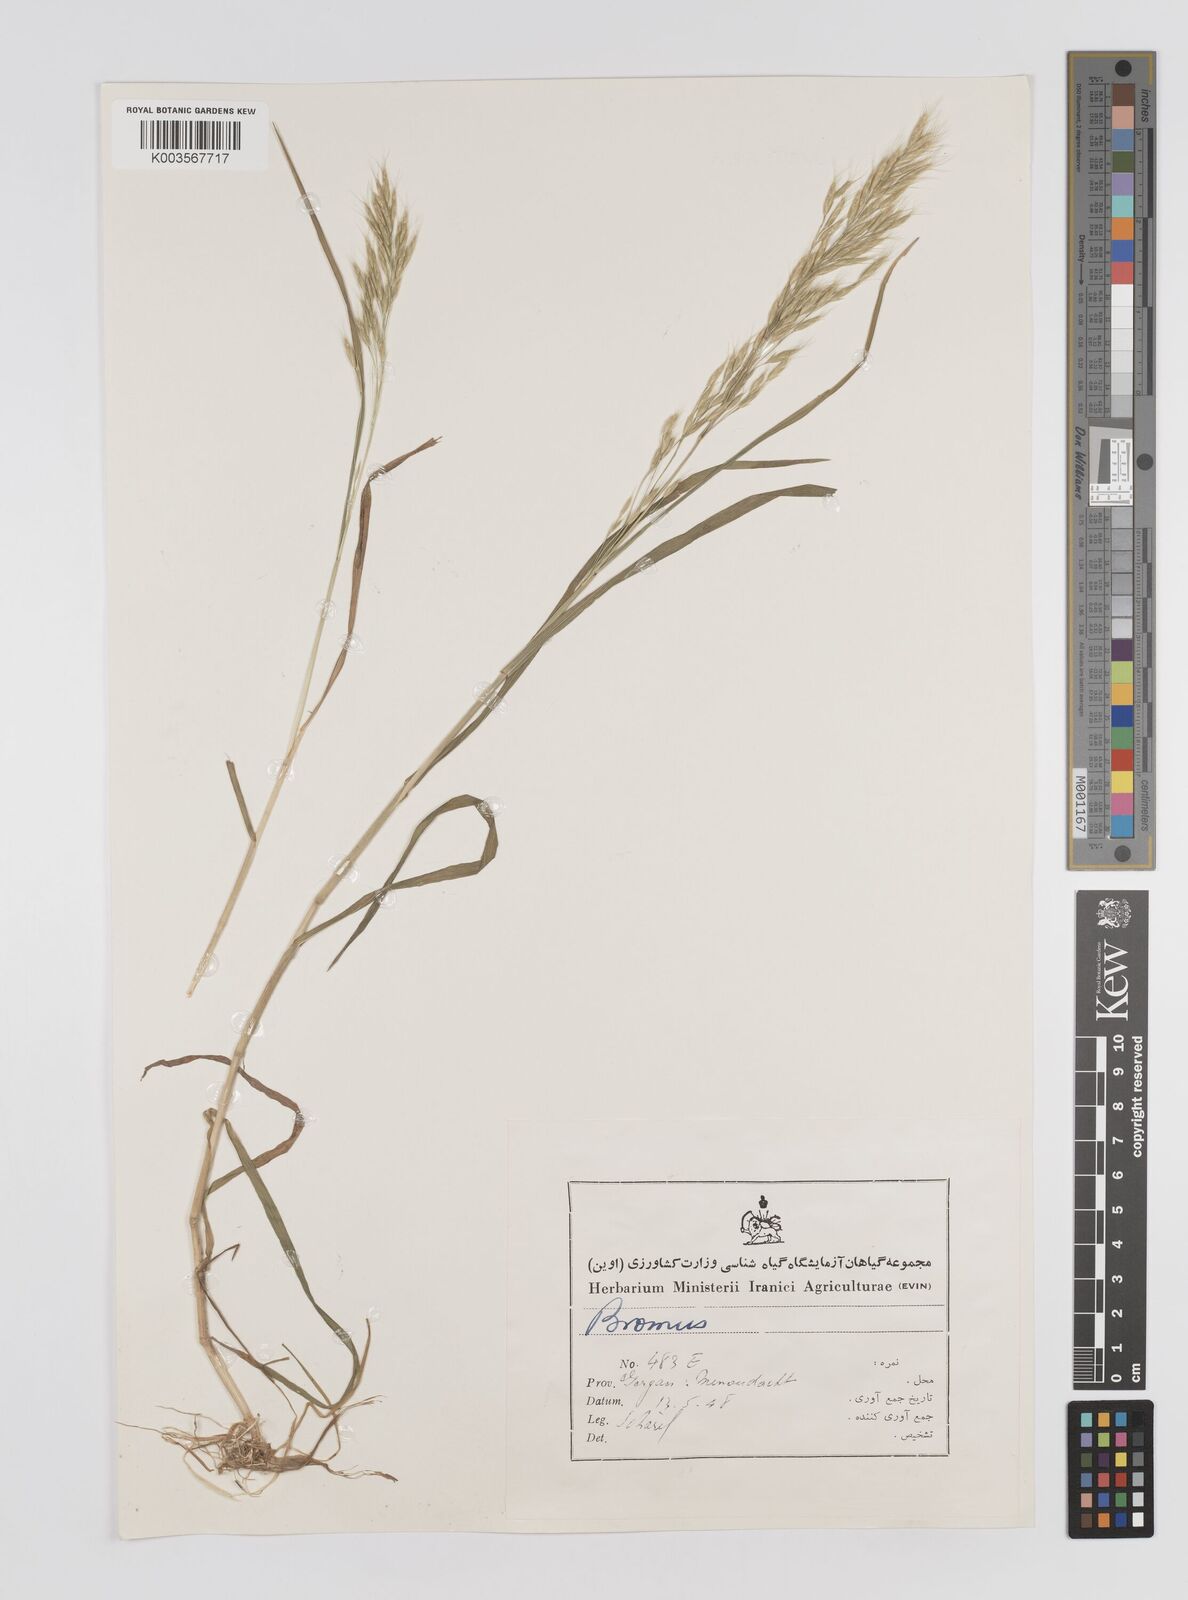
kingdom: Plantae
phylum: Tracheophyta
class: Liliopsida
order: Poales
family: Poaceae
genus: Bromus
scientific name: Bromus
